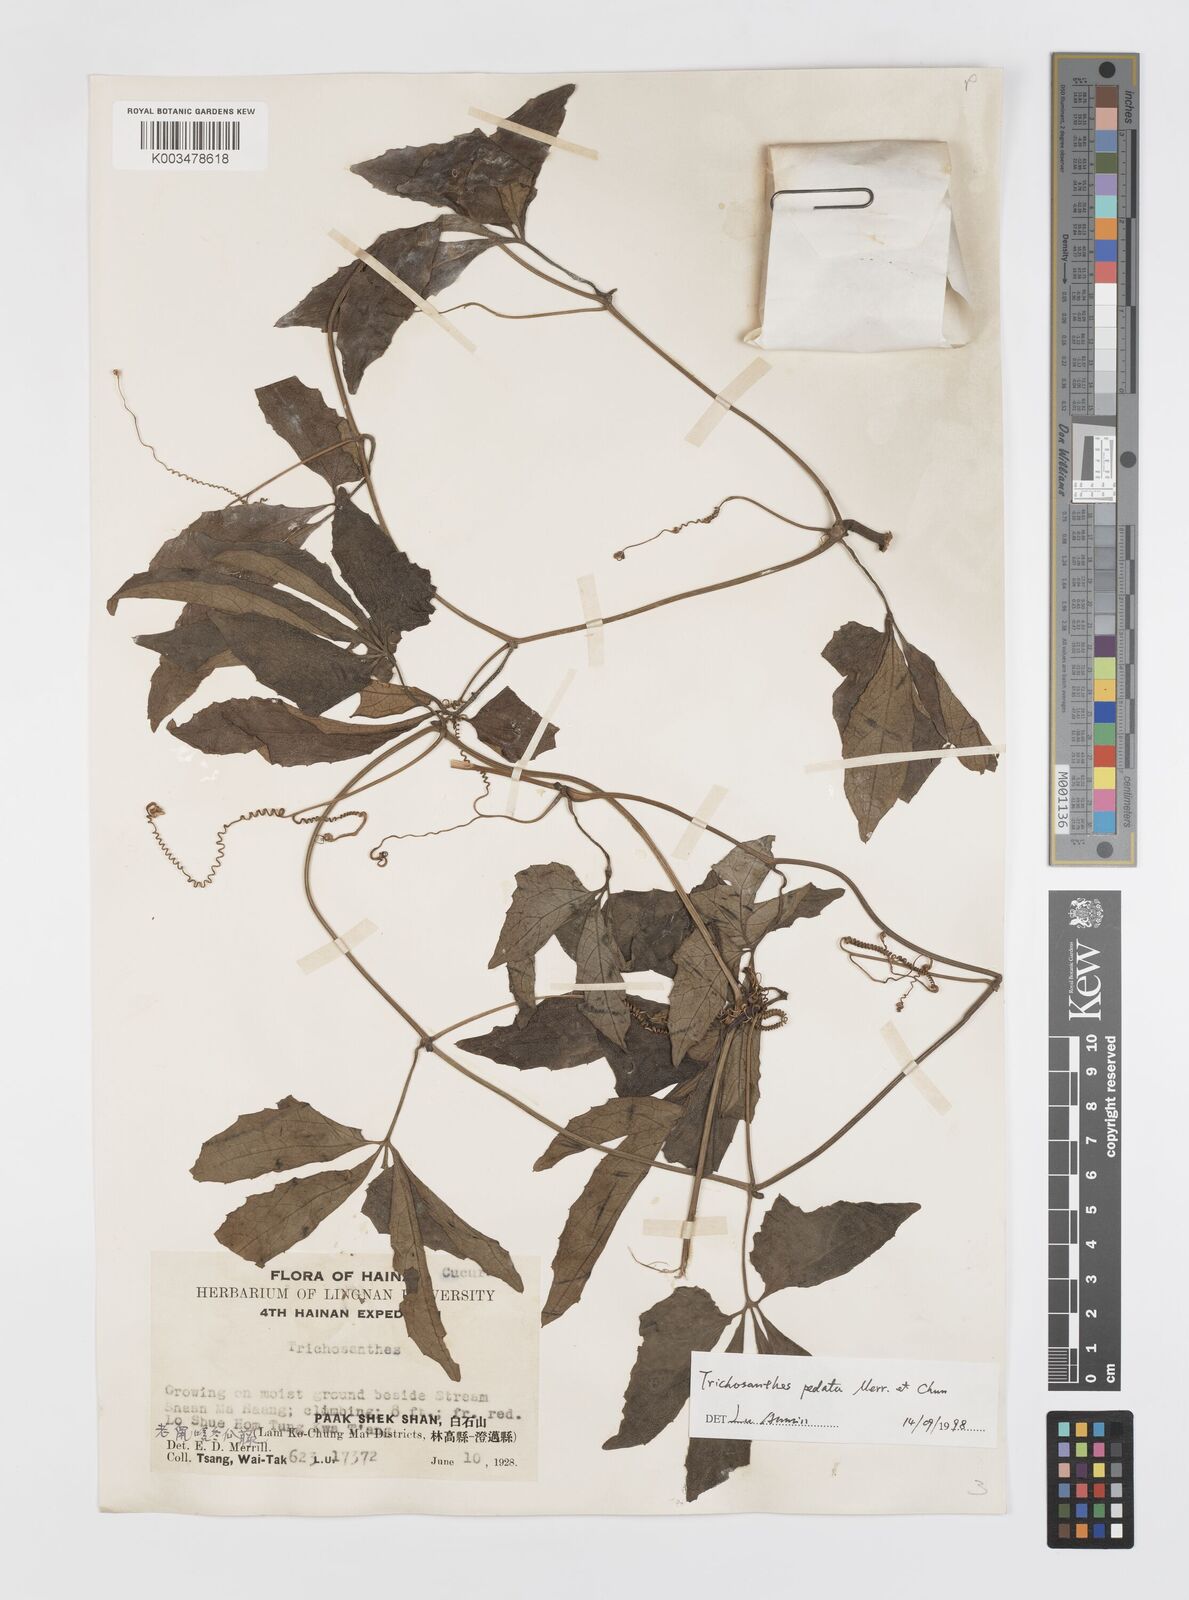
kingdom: Plantae
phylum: Tracheophyta
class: Magnoliopsida
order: Cucurbitales
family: Cucurbitaceae
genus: Trichosanthes
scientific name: Trichosanthes pedata
